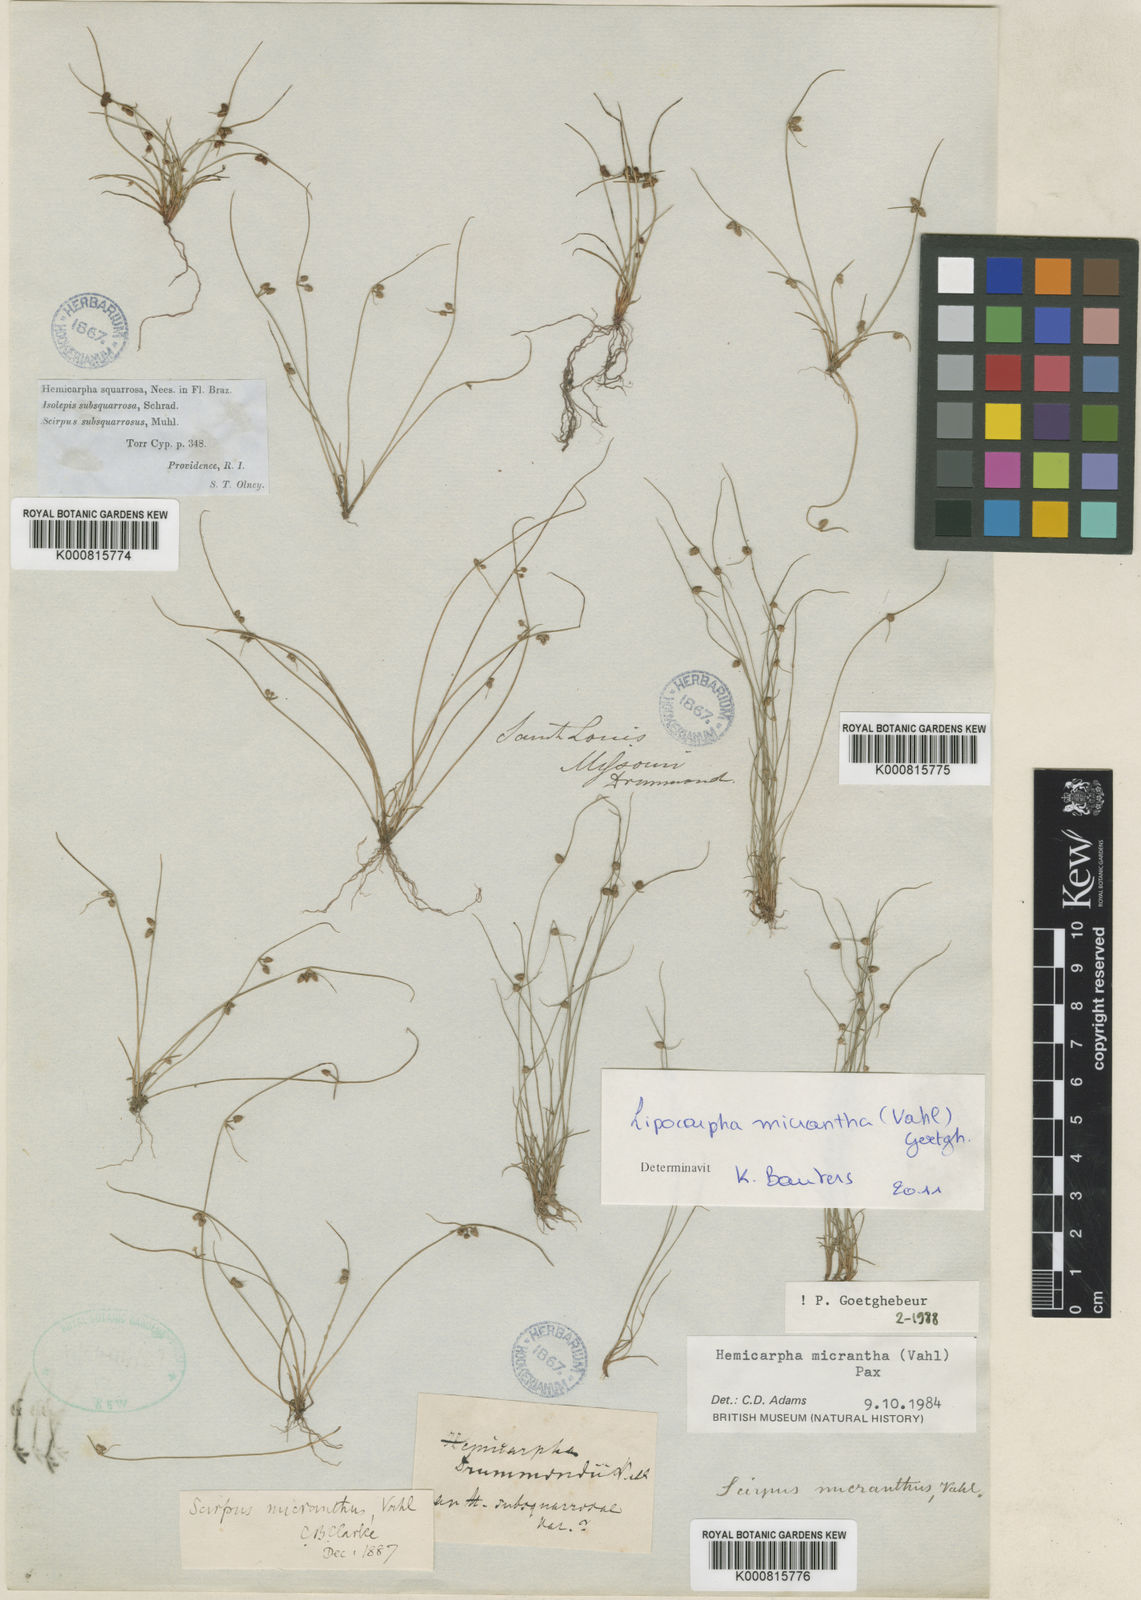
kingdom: Plantae
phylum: Tracheophyta
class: Liliopsida
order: Poales
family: Cyperaceae
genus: Cyperus
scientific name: Cyperus subsquarrosus
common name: Dwarf bulrush
